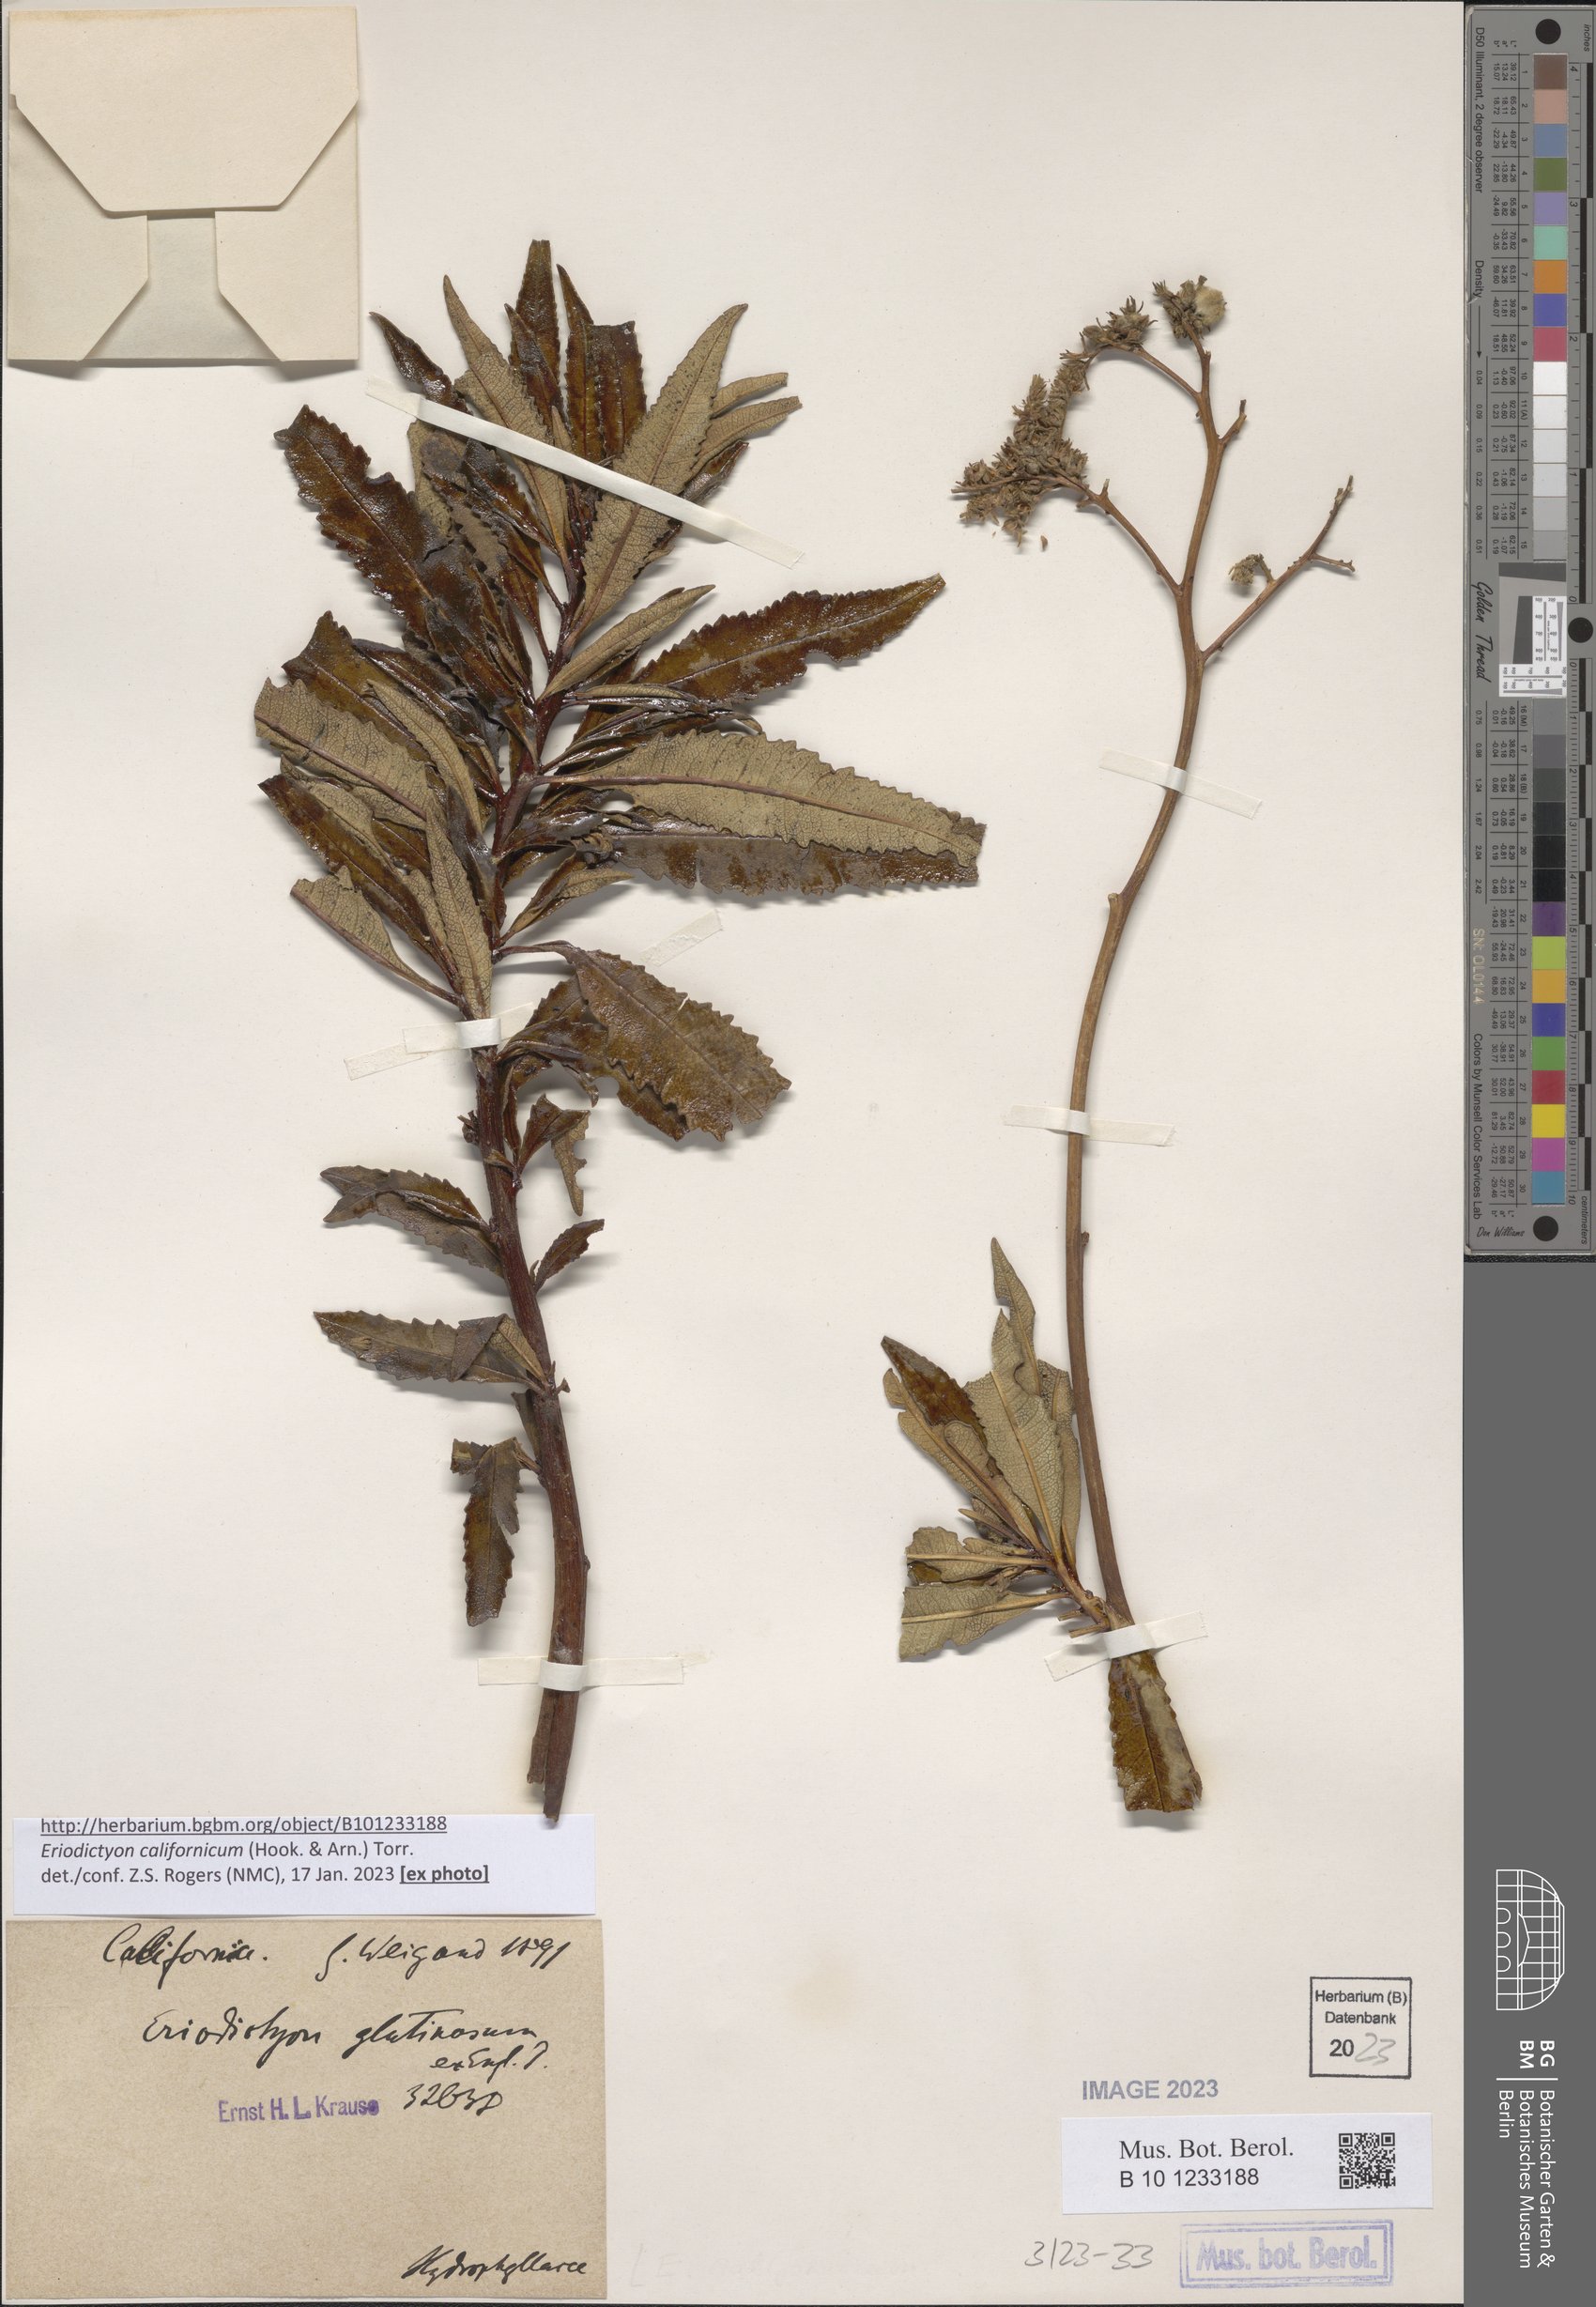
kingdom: Plantae
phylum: Tracheophyta
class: Magnoliopsida
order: Boraginales
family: Namaceae
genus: Eriodictyon
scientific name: Eriodictyon crassifolium
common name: Thick-leaf yerba-santa
